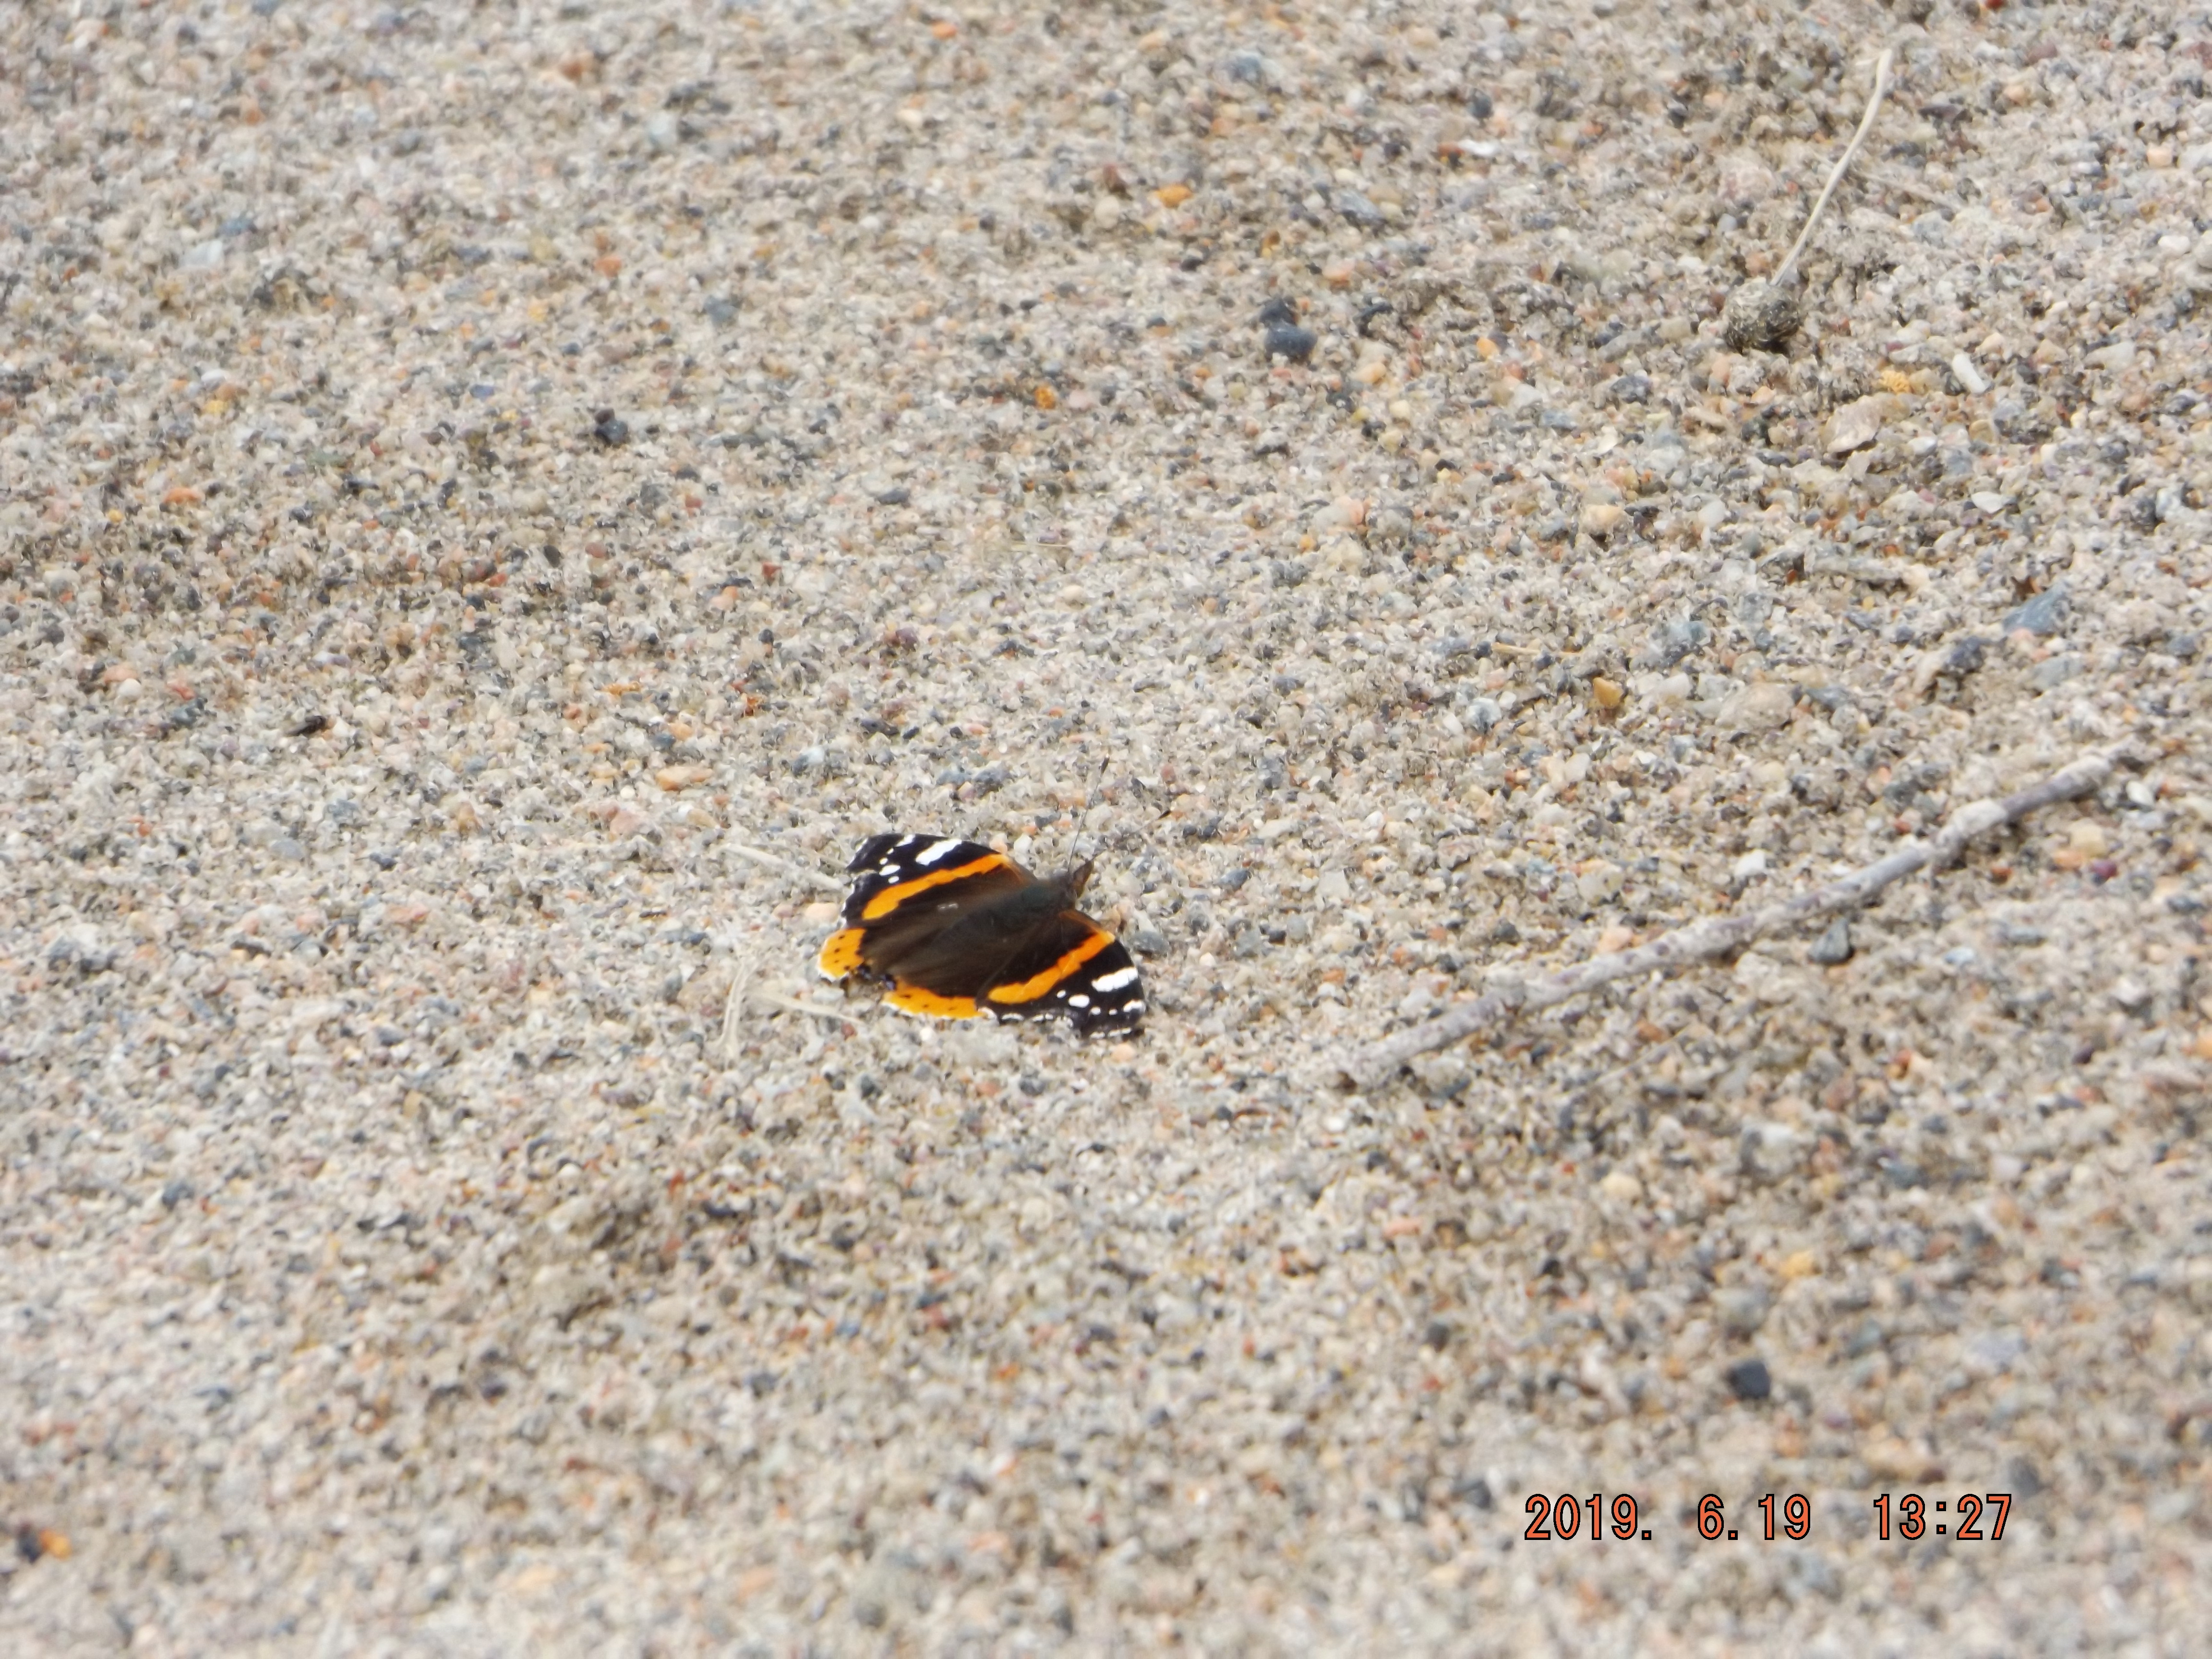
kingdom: Animalia
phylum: Arthropoda
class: Insecta
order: Lepidoptera
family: Nymphalidae
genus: Vanessa
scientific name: Vanessa atalanta
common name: Red admiral
